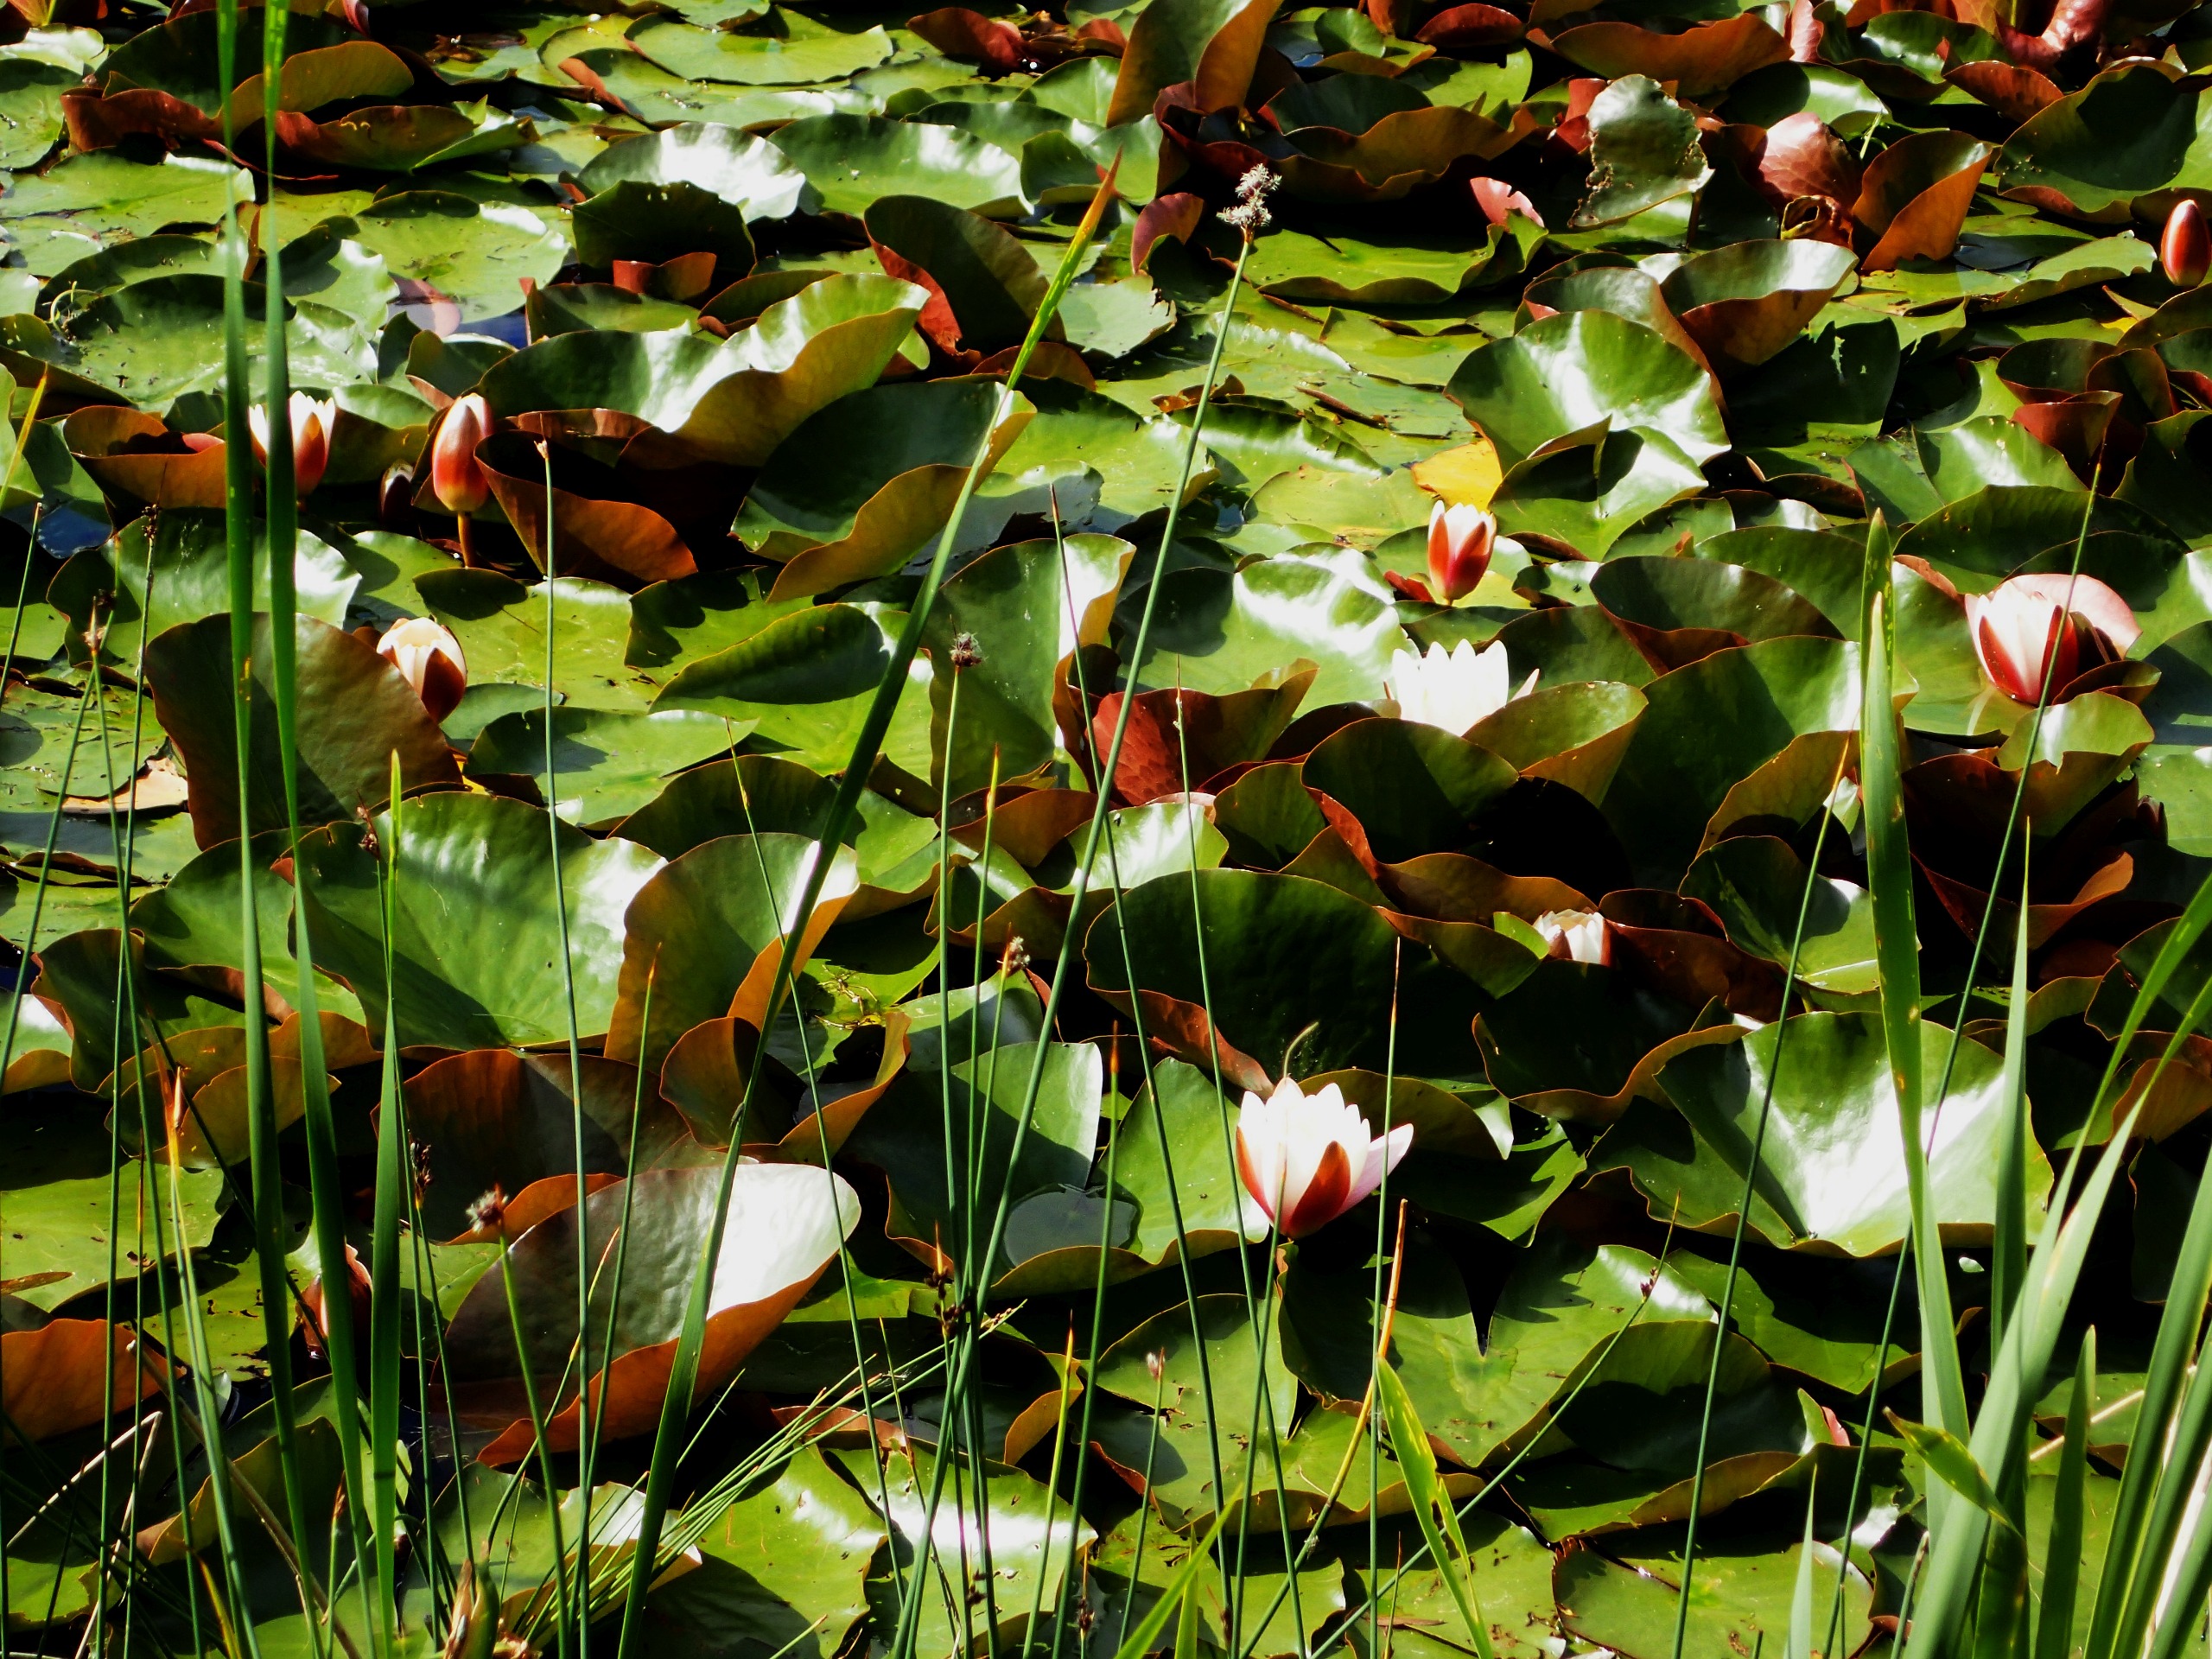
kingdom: Plantae
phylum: Tracheophyta
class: Magnoliopsida
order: Nymphaeales
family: Nymphaeaceae
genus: Nymphaea
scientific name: Nymphaea alba
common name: Hvid åkande
